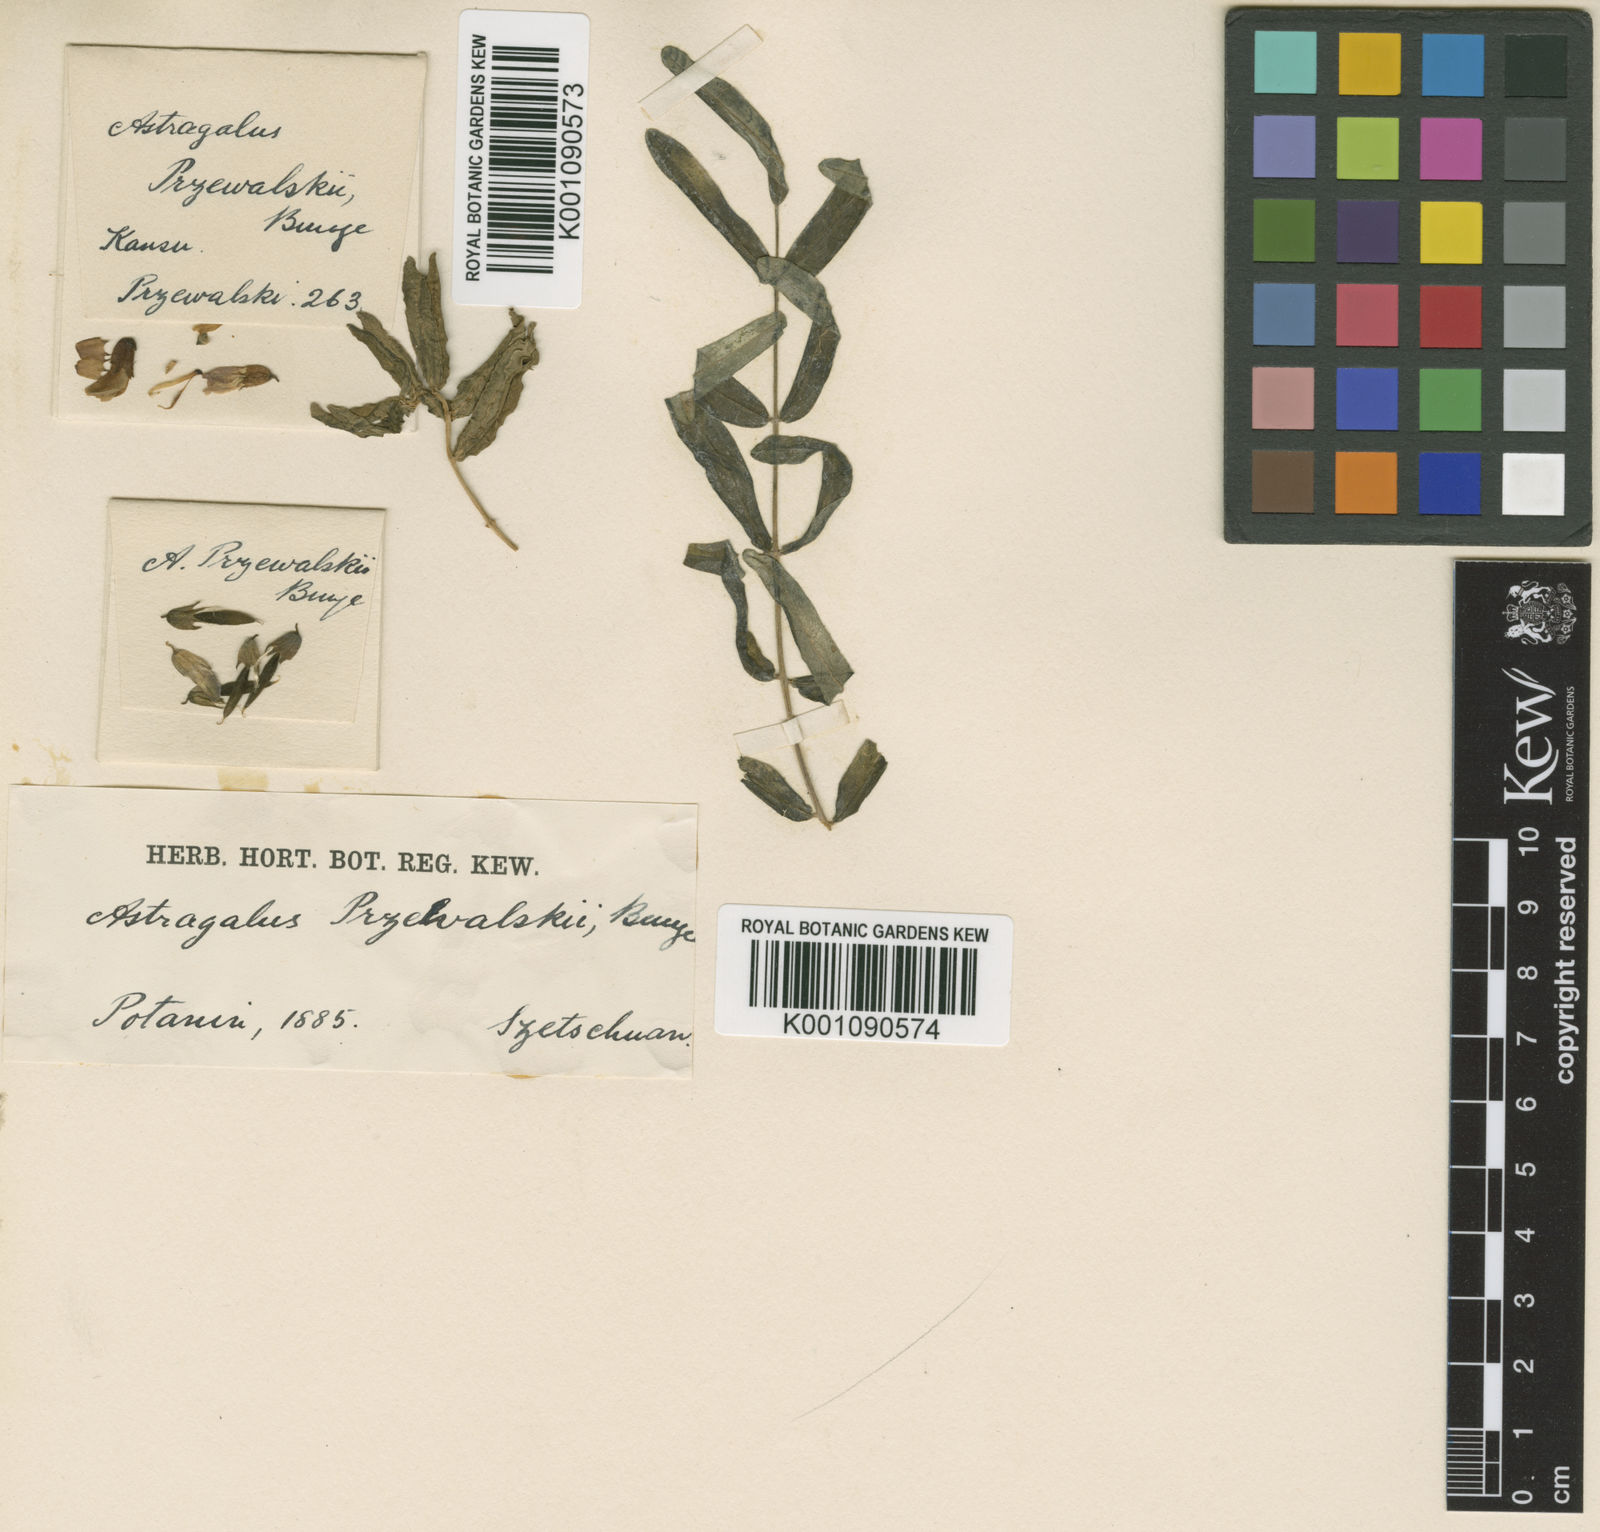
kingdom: Plantae
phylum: Tracheophyta
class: Magnoliopsida
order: Fabales
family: Fabaceae
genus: Astragalus
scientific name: Astragalus
